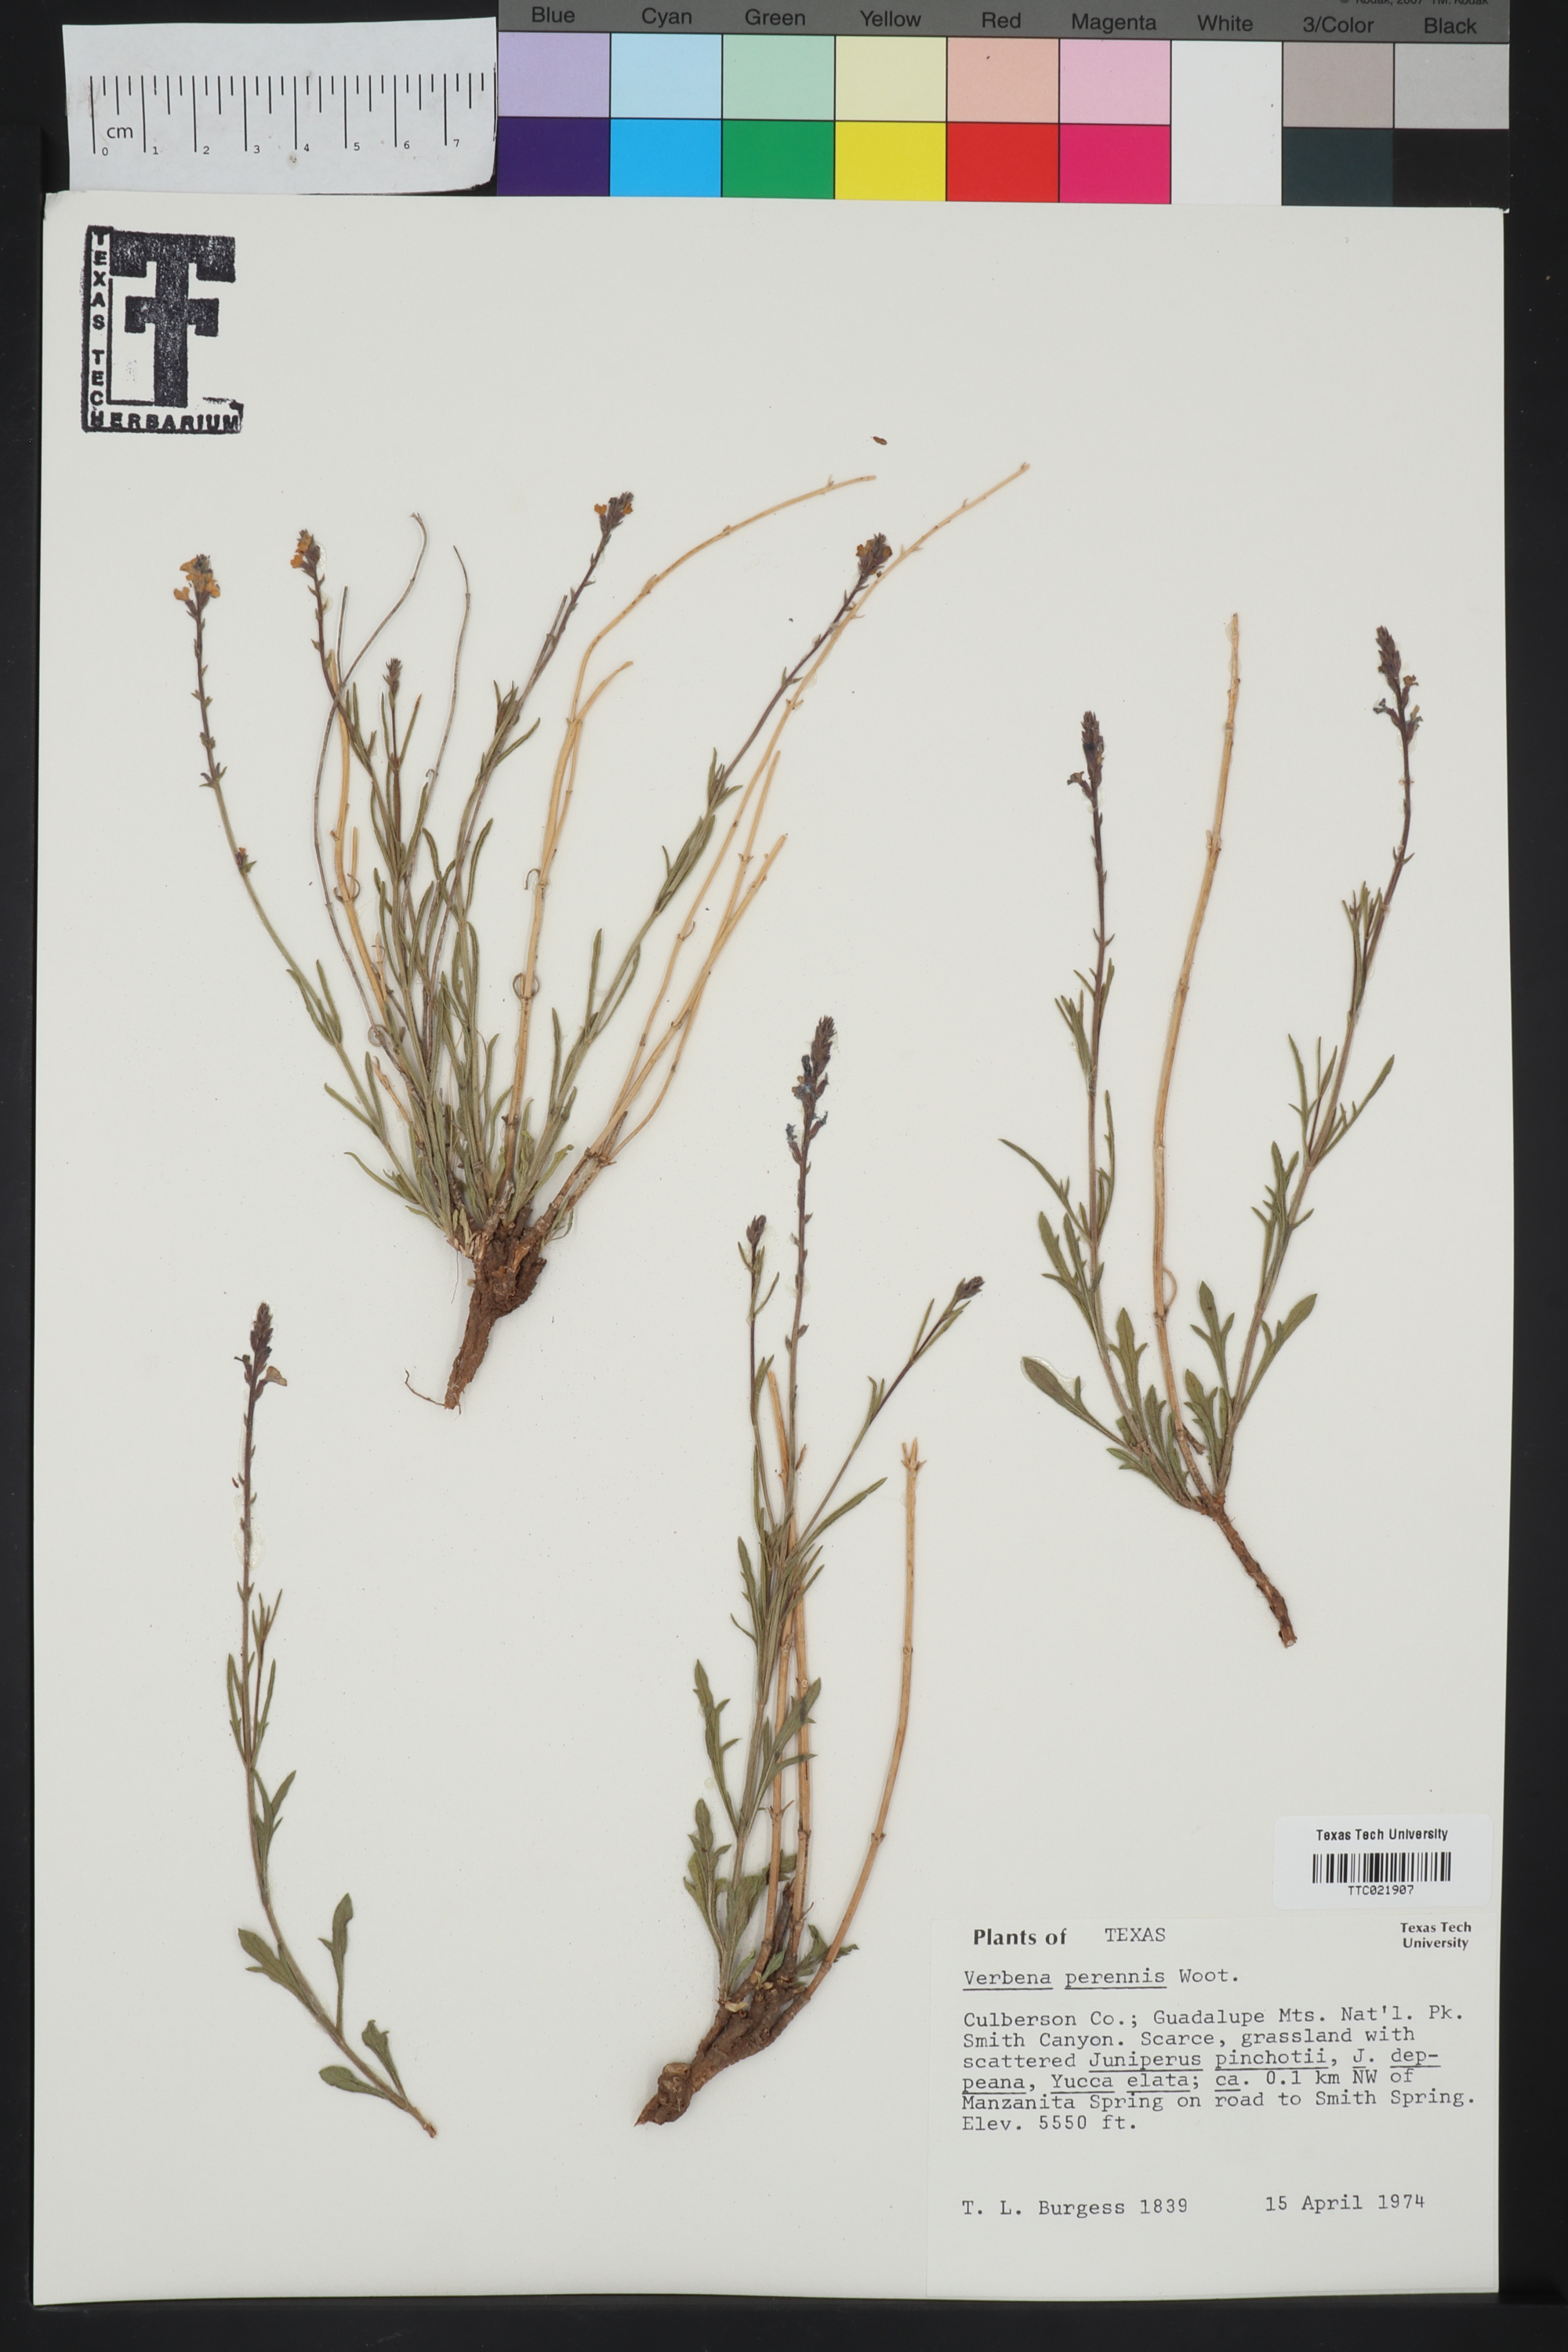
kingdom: Plantae
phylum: Tracheophyta
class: Magnoliopsida
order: Lamiales
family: Verbenaceae
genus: Verbena
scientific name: Verbena perennis
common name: Pin-leaf vervain
